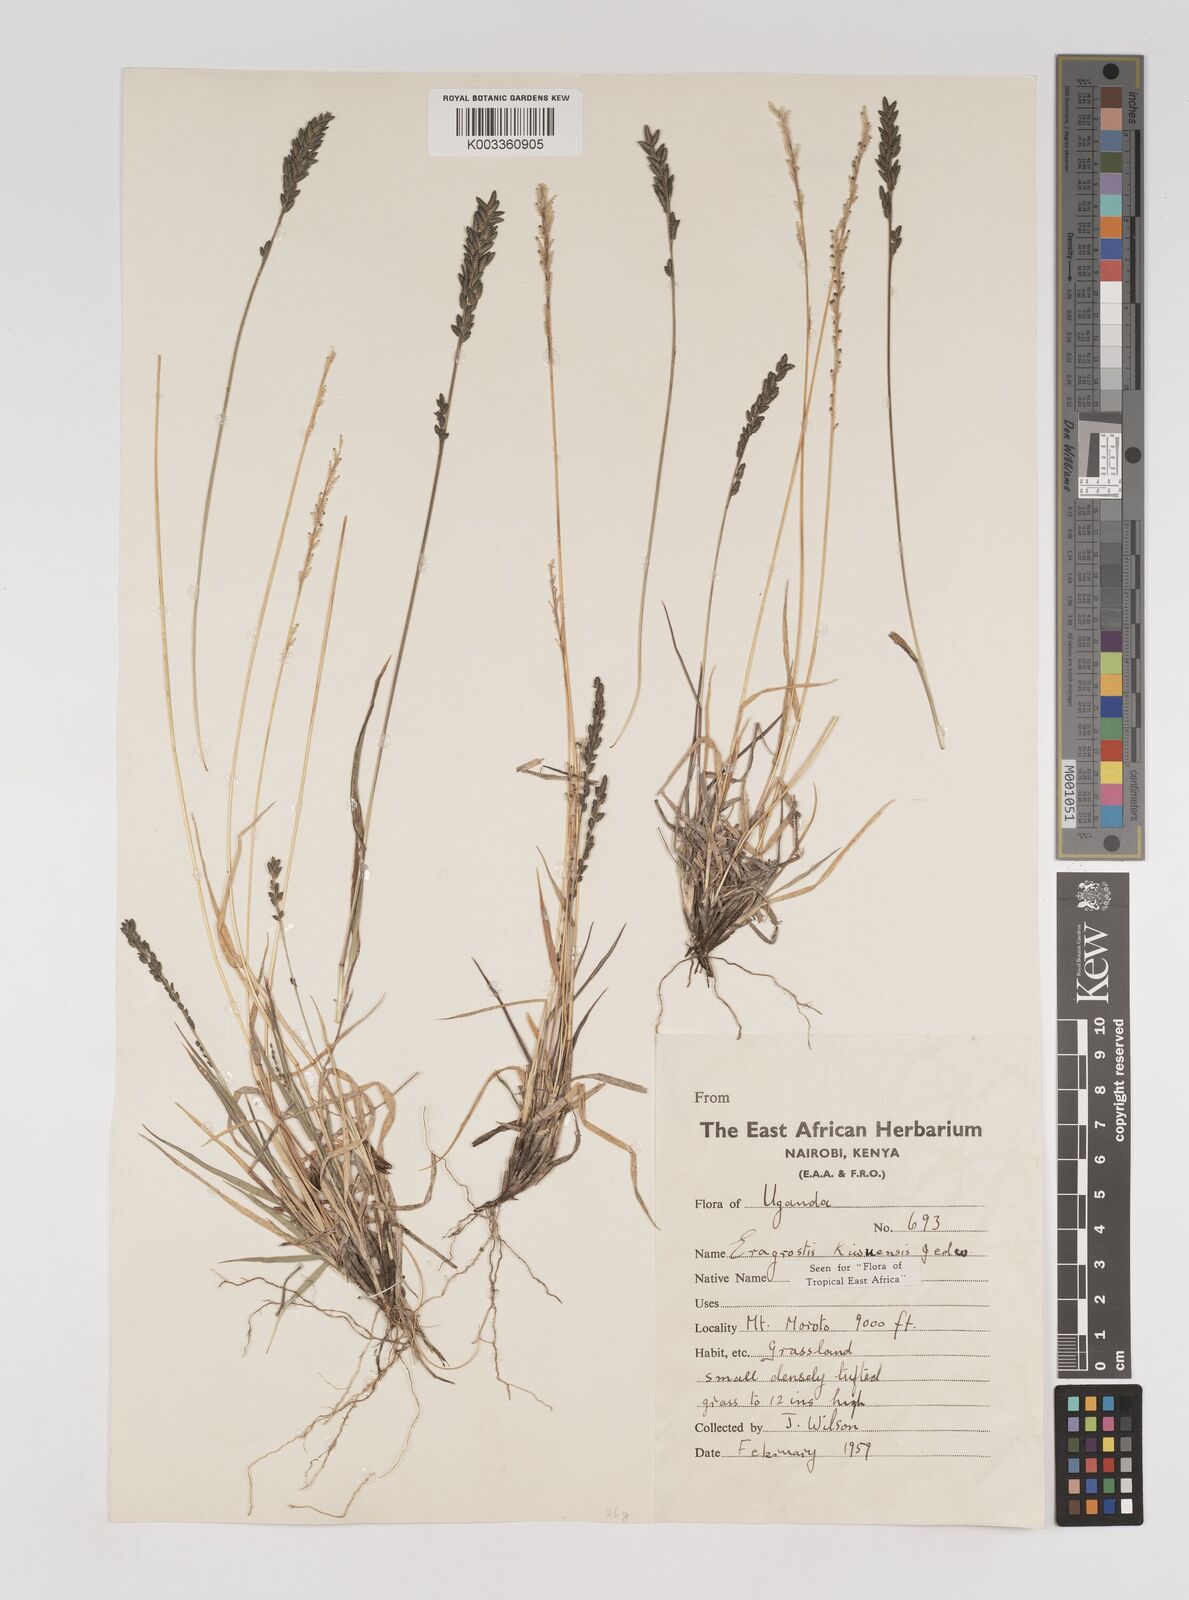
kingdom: Plantae
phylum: Tracheophyta
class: Liliopsida
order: Poales
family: Poaceae
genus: Eragrostis
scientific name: Eragrostis schweinfurthii
